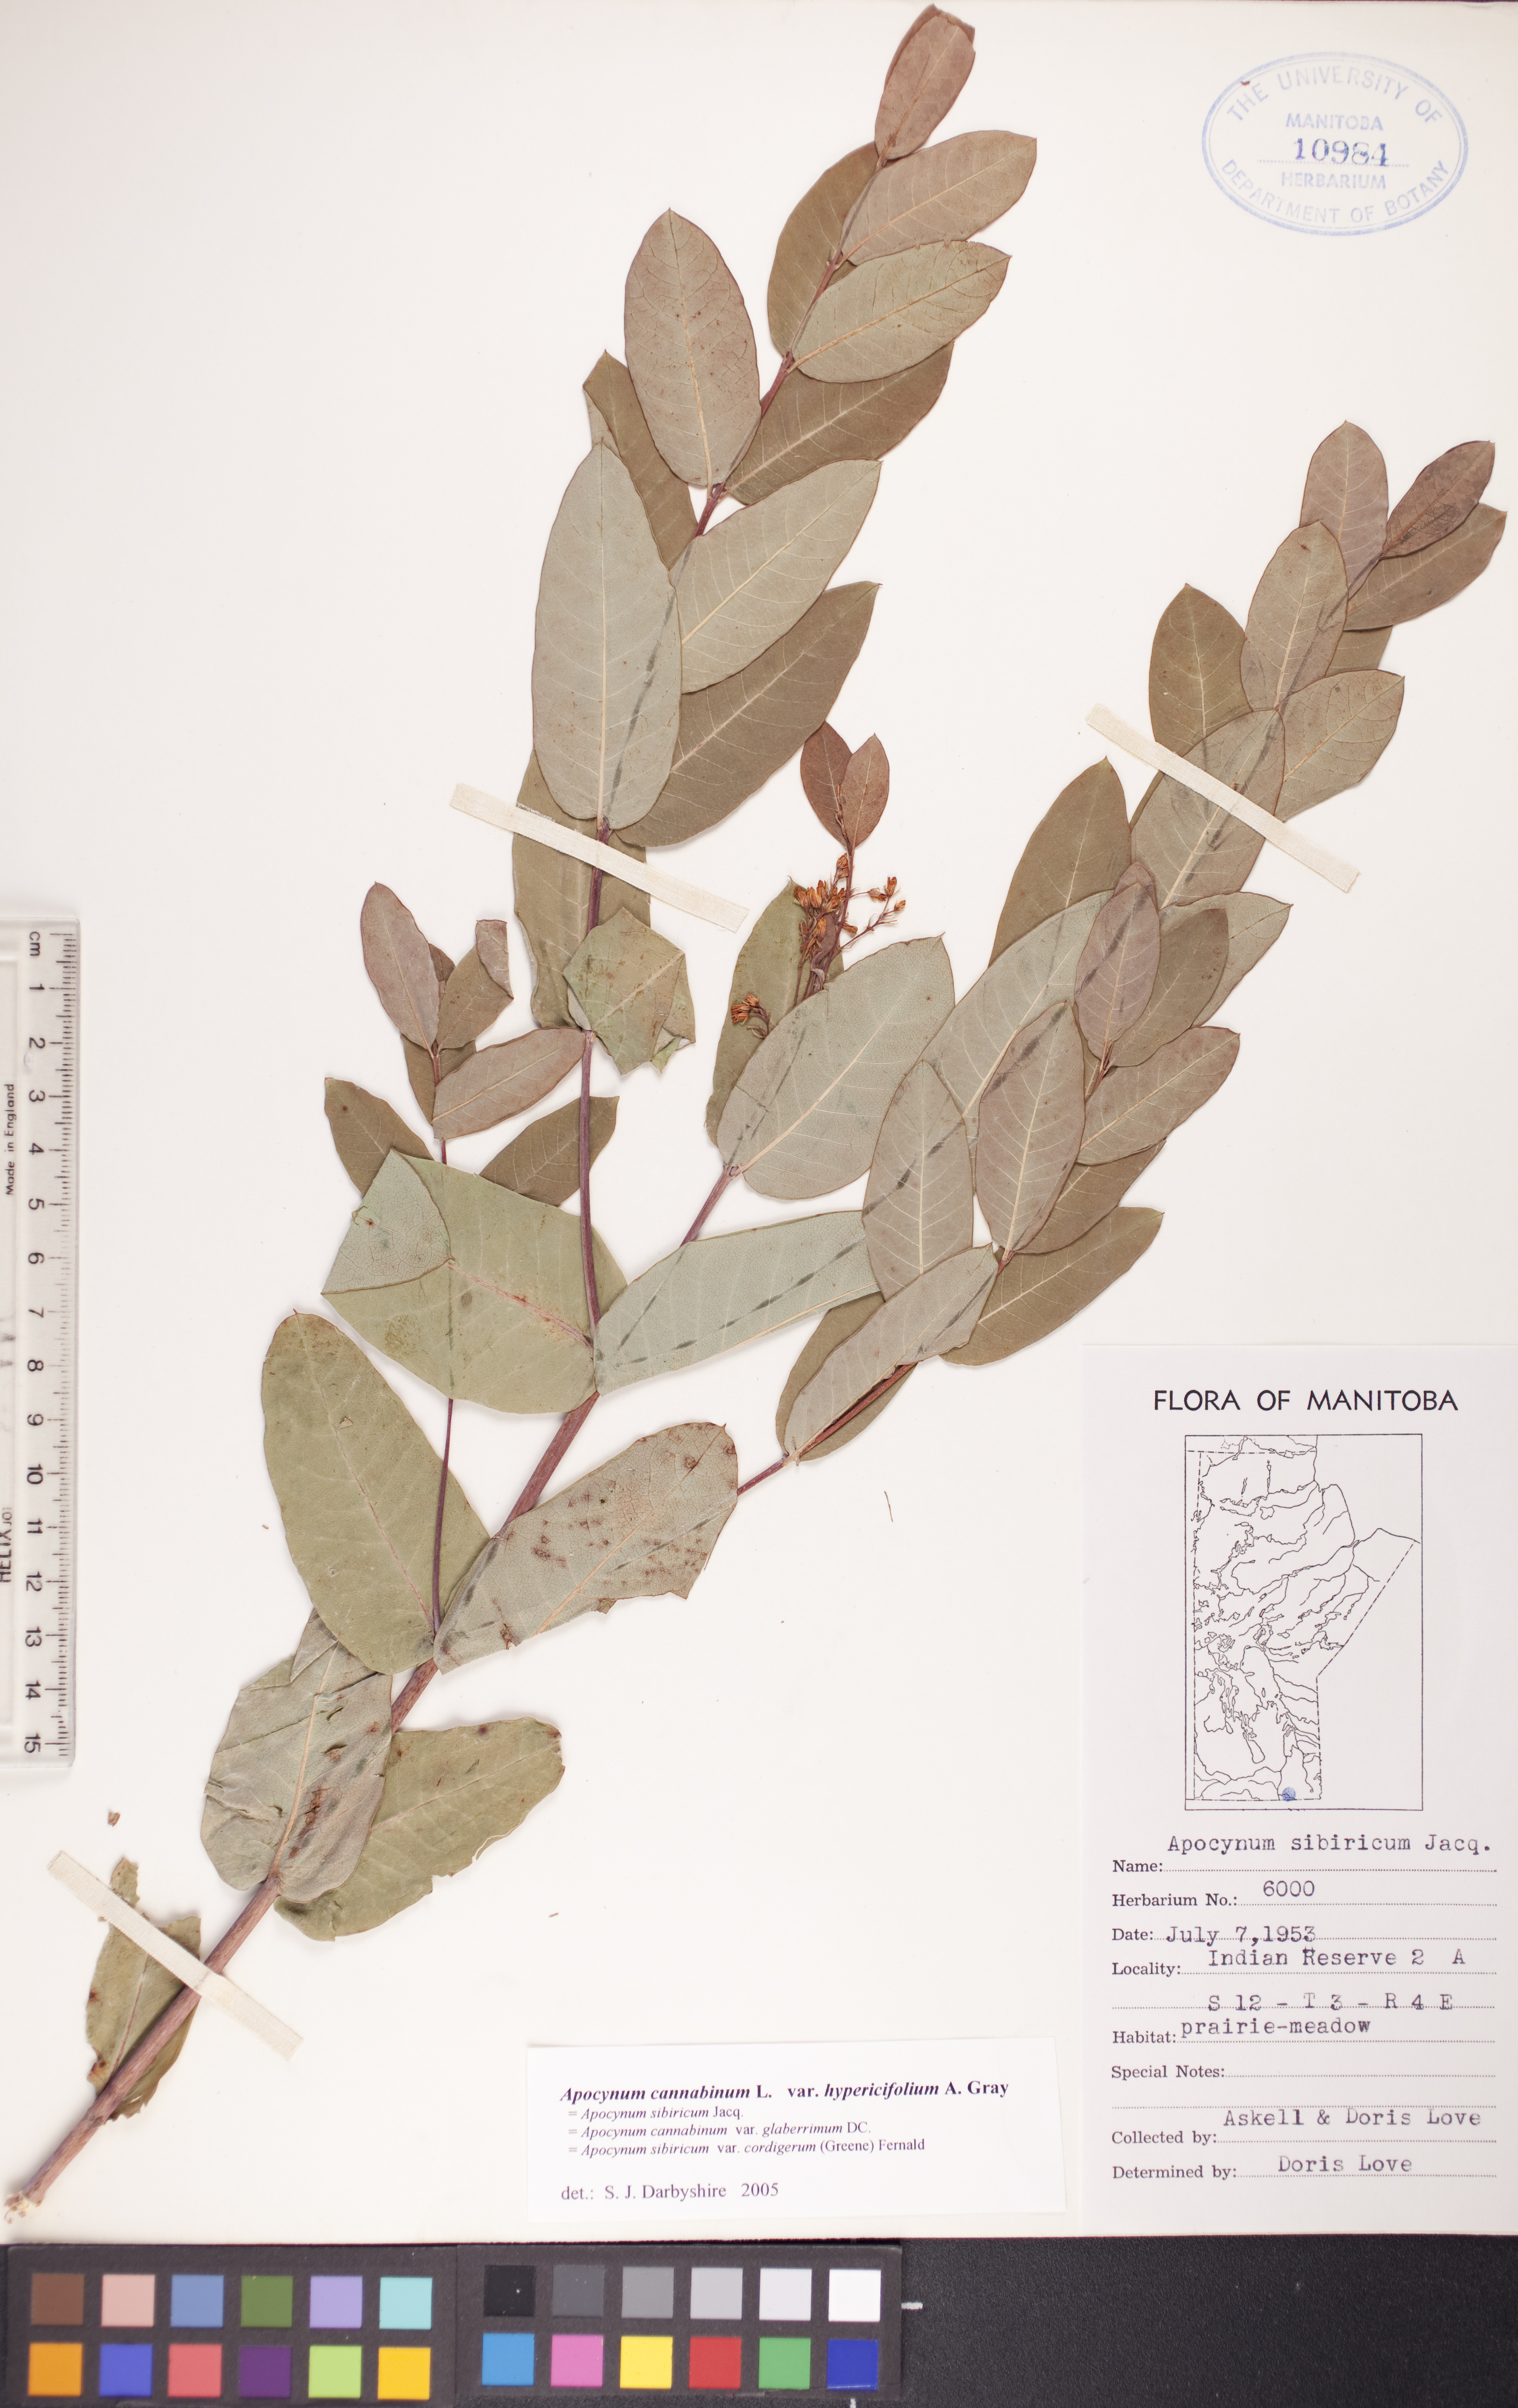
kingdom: Plantae
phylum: Tracheophyta
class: Magnoliopsida
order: Gentianales
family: Apocynaceae
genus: Apocynum
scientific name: Apocynum cannabinum
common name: Hemp dogbane
